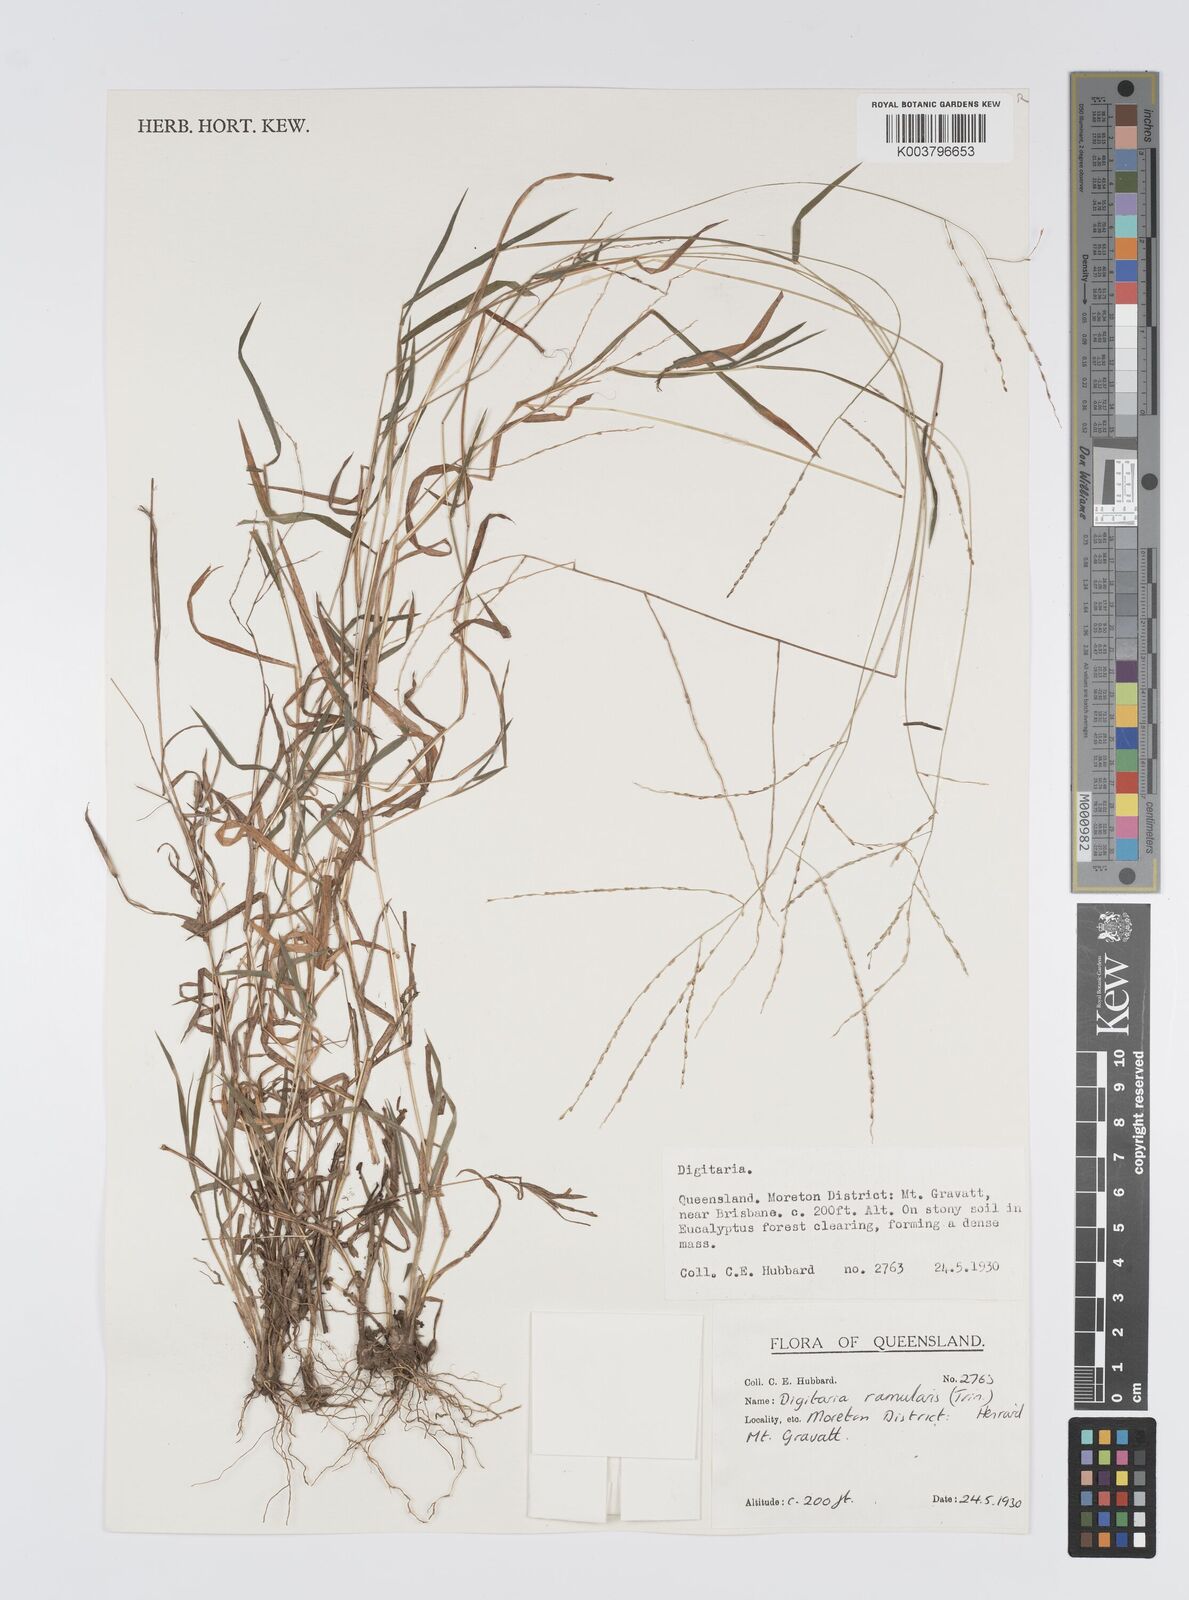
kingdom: Plantae
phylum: Tracheophyta
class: Liliopsida
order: Poales
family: Poaceae
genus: Digitaria
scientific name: Digitaria ramularis
